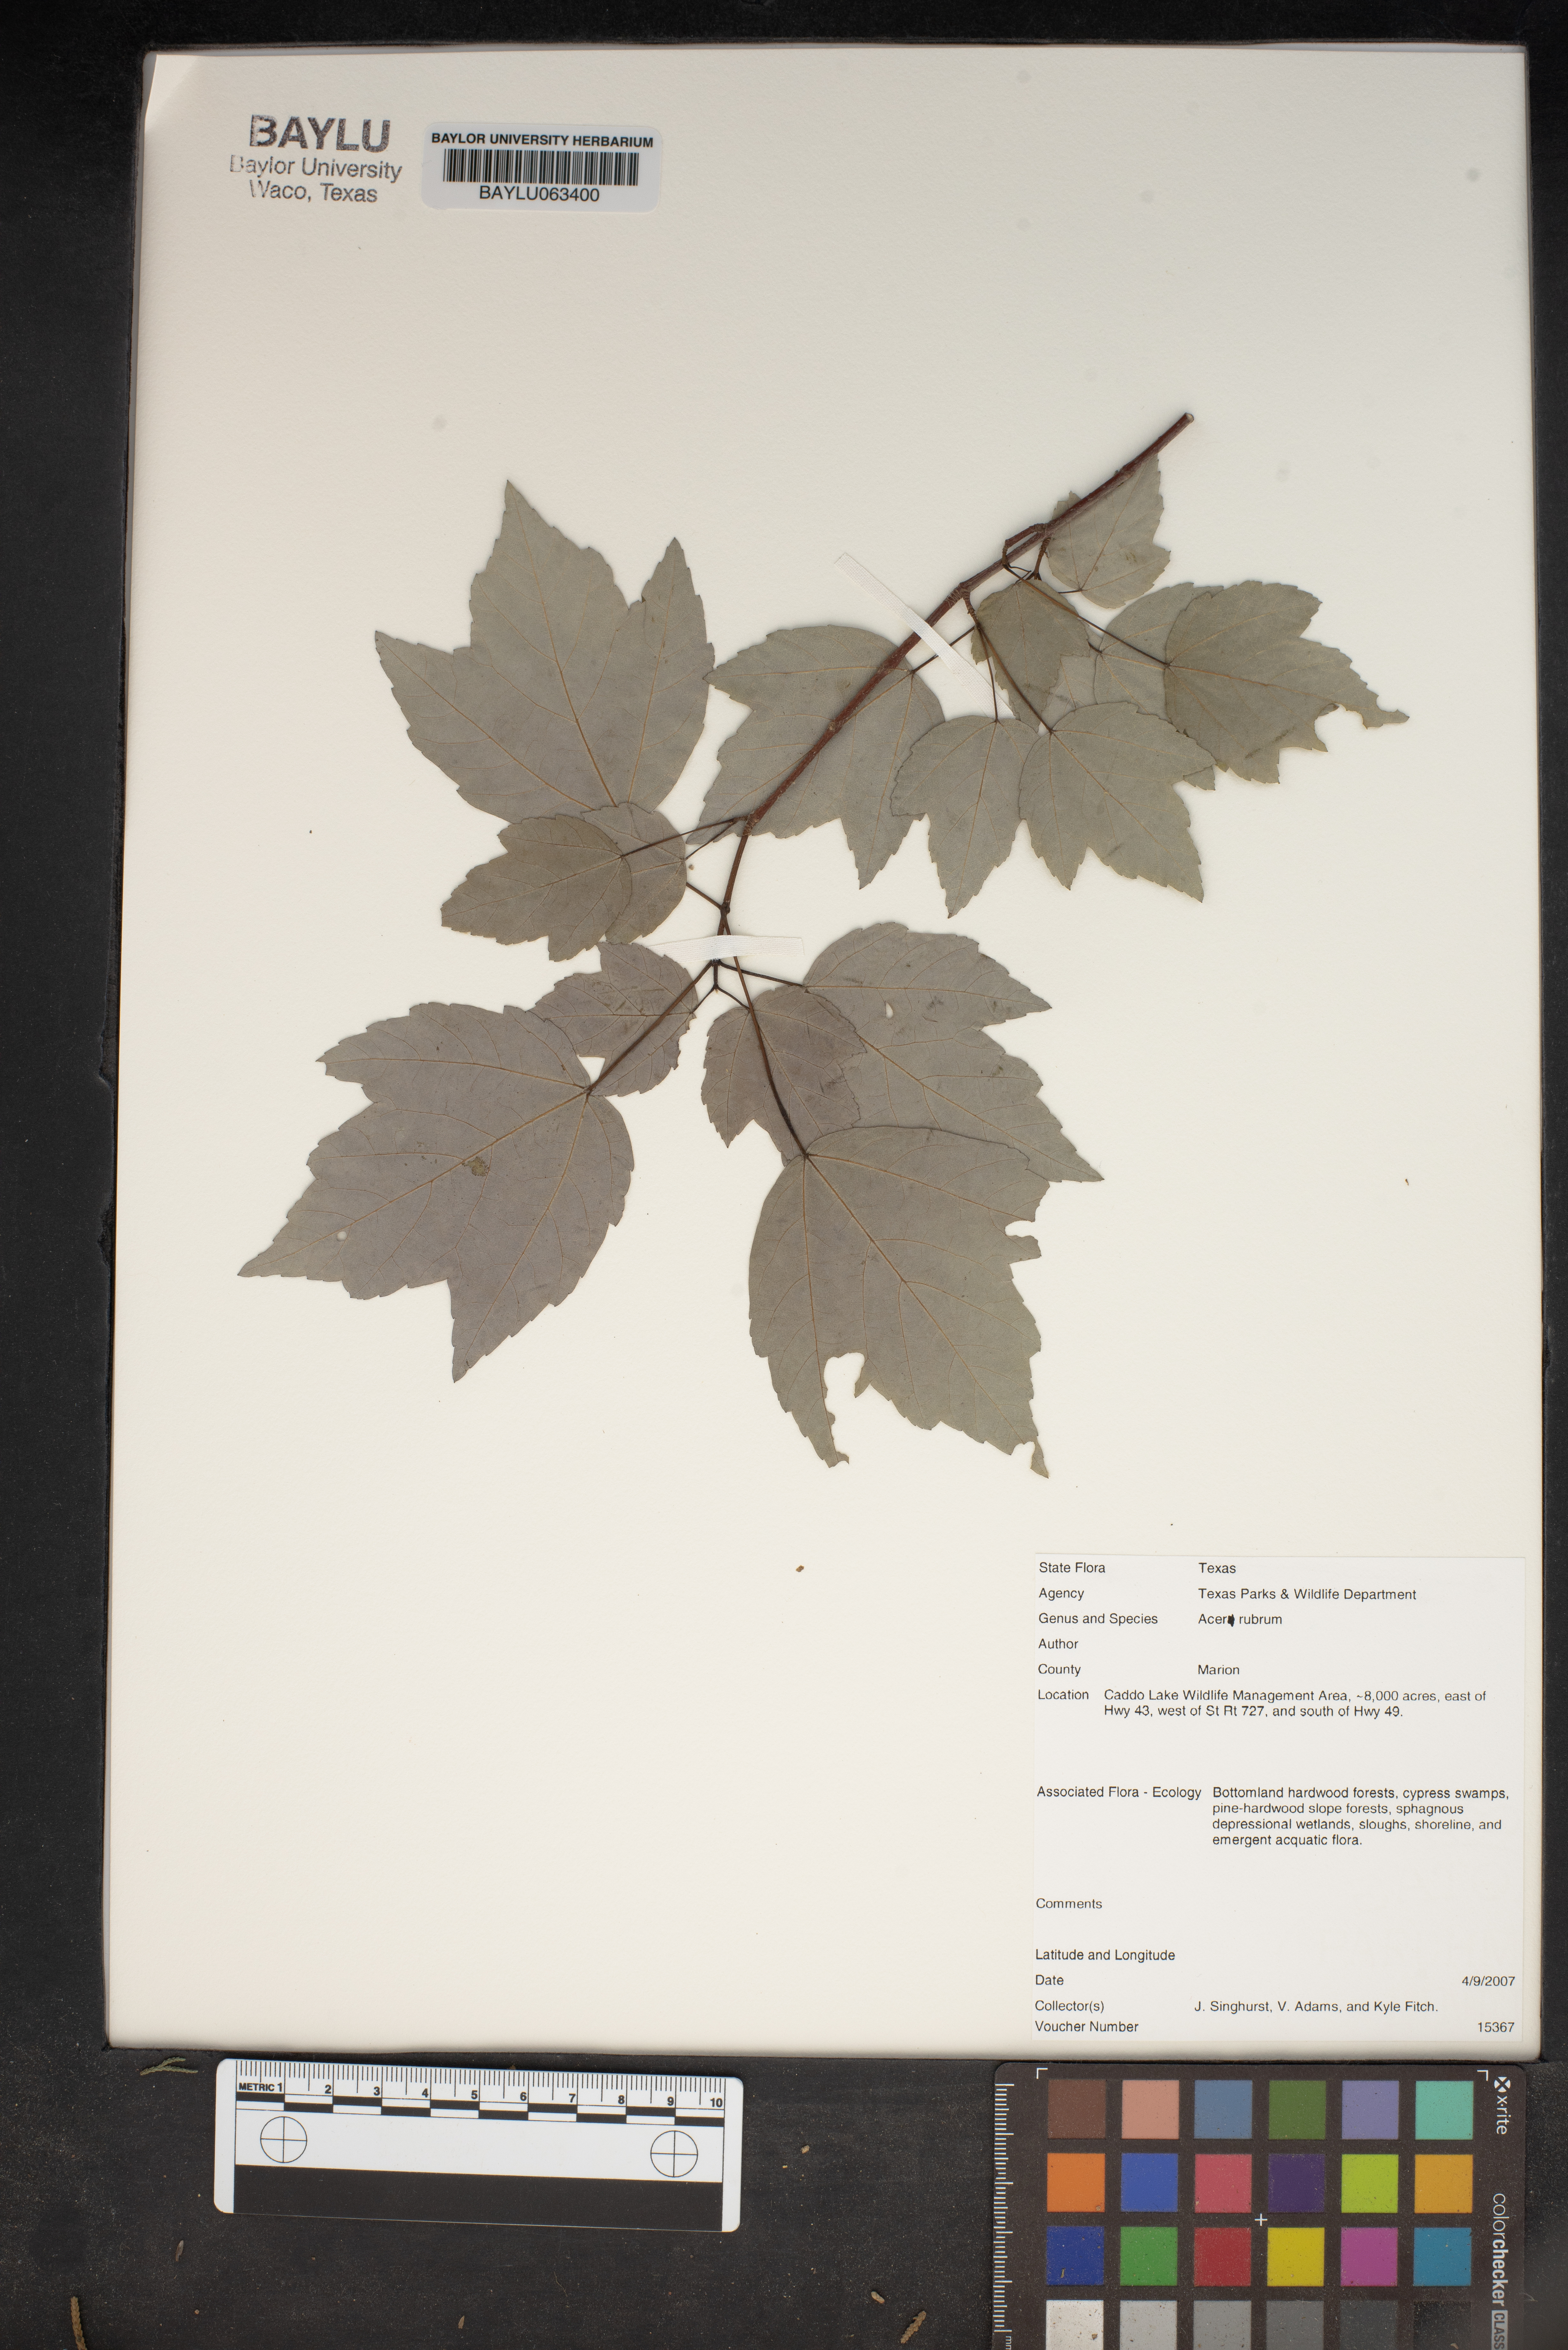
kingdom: Plantae
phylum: Tracheophyta
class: Magnoliopsida
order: Sapindales
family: Sapindaceae
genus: Acer
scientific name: Acer rubrum
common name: Red maple
